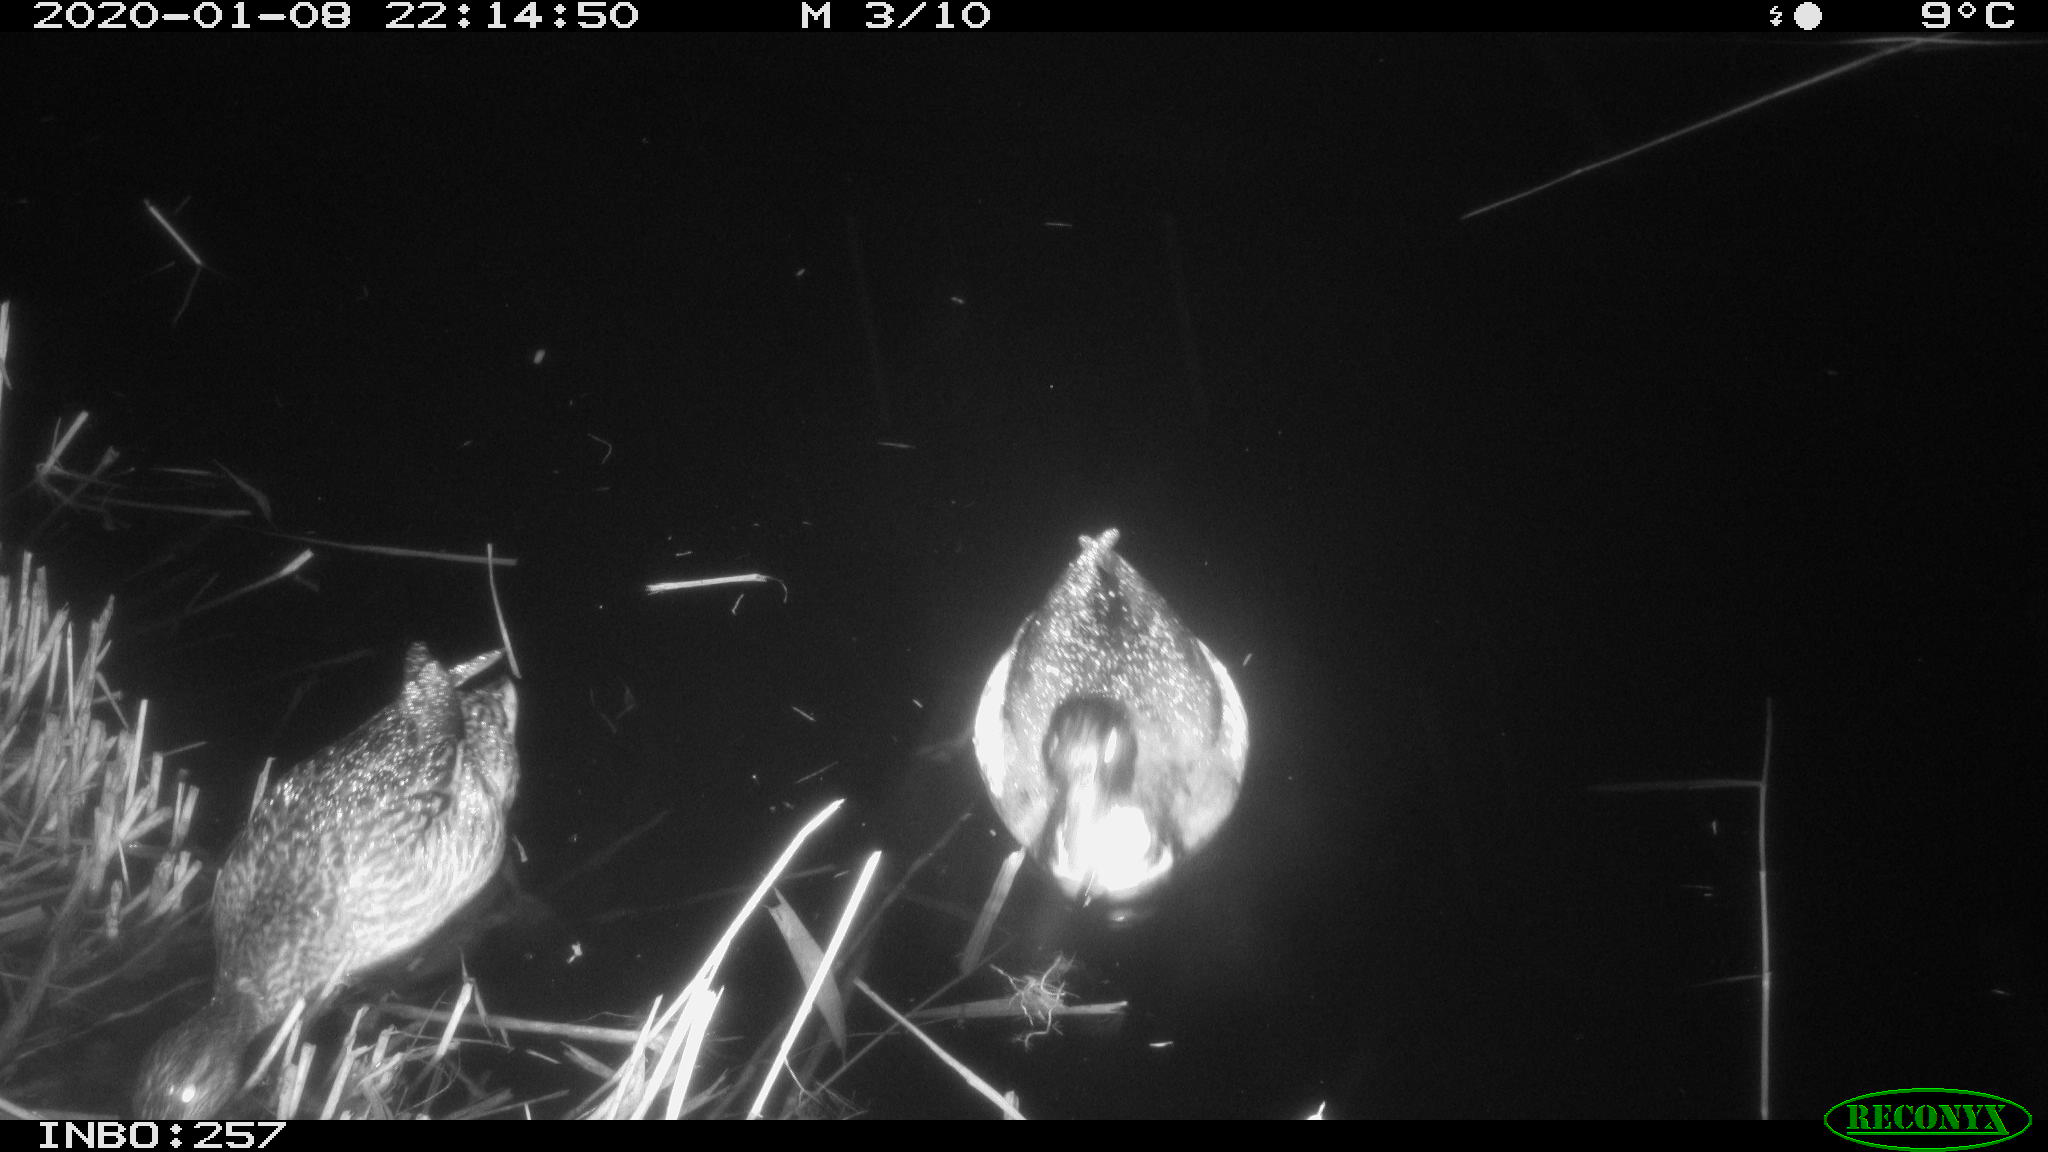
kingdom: Animalia
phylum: Chordata
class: Aves
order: Anseriformes
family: Anatidae
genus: Anas
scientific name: Anas platyrhynchos
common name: Mallard
